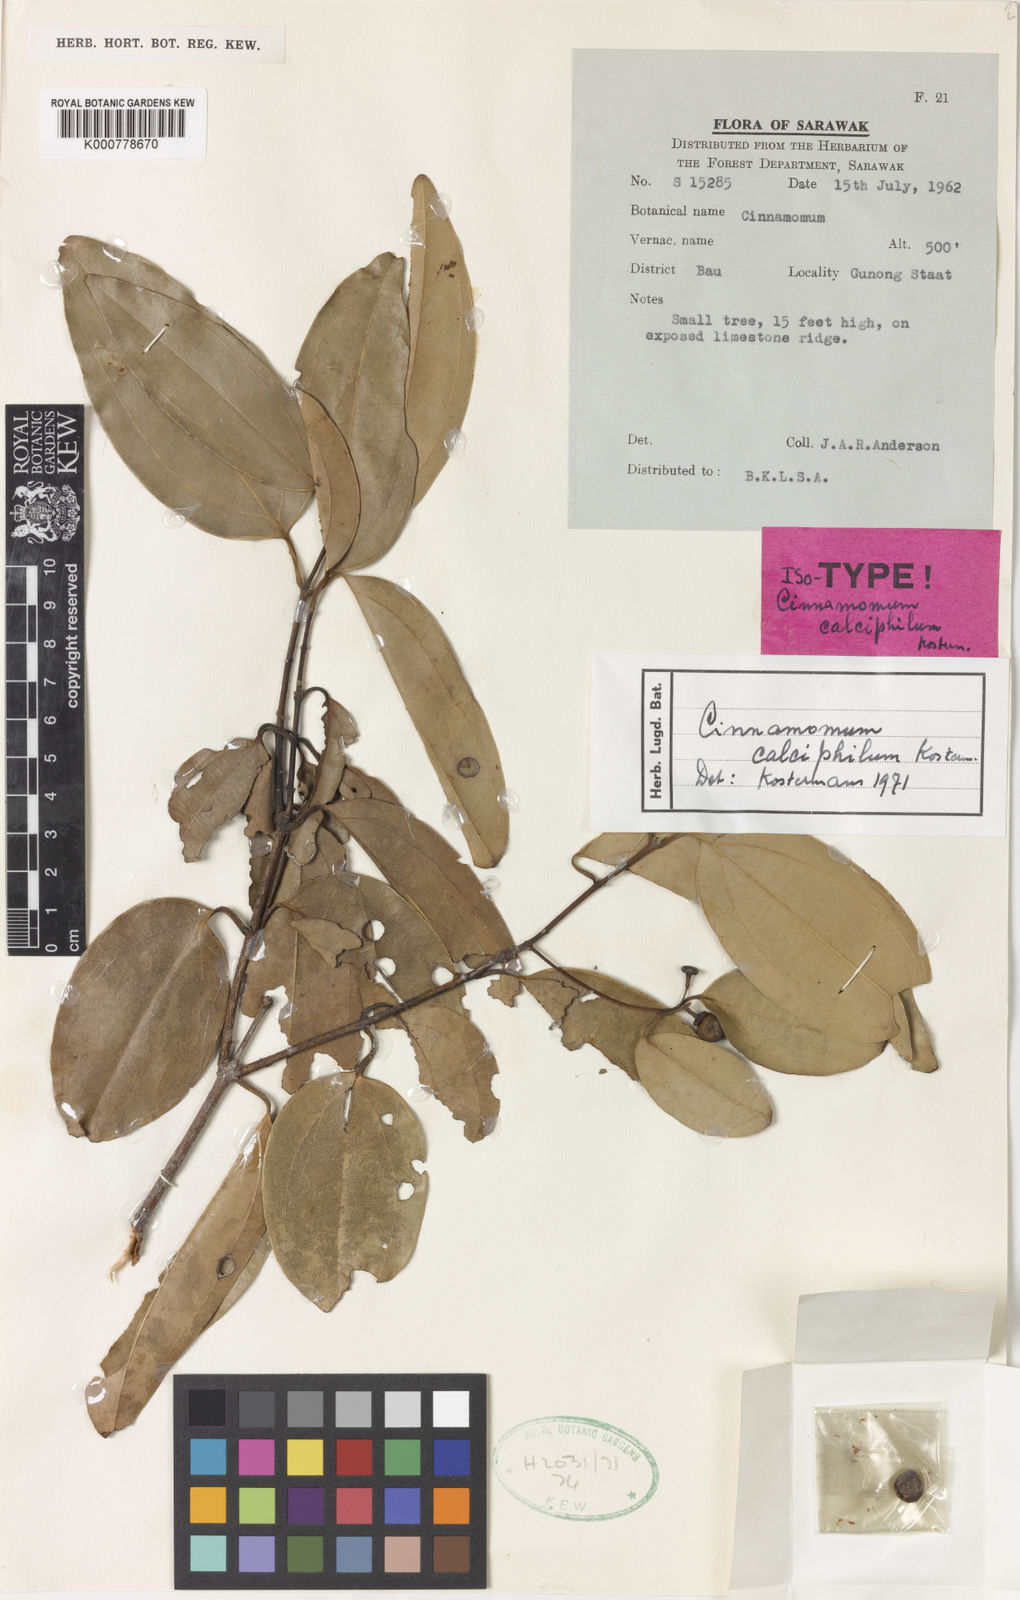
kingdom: Plantae
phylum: Tracheophyta
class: Magnoliopsida
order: Laurales
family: Lauraceae
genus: Cinnamomum
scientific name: Cinnamomum calciphilum
